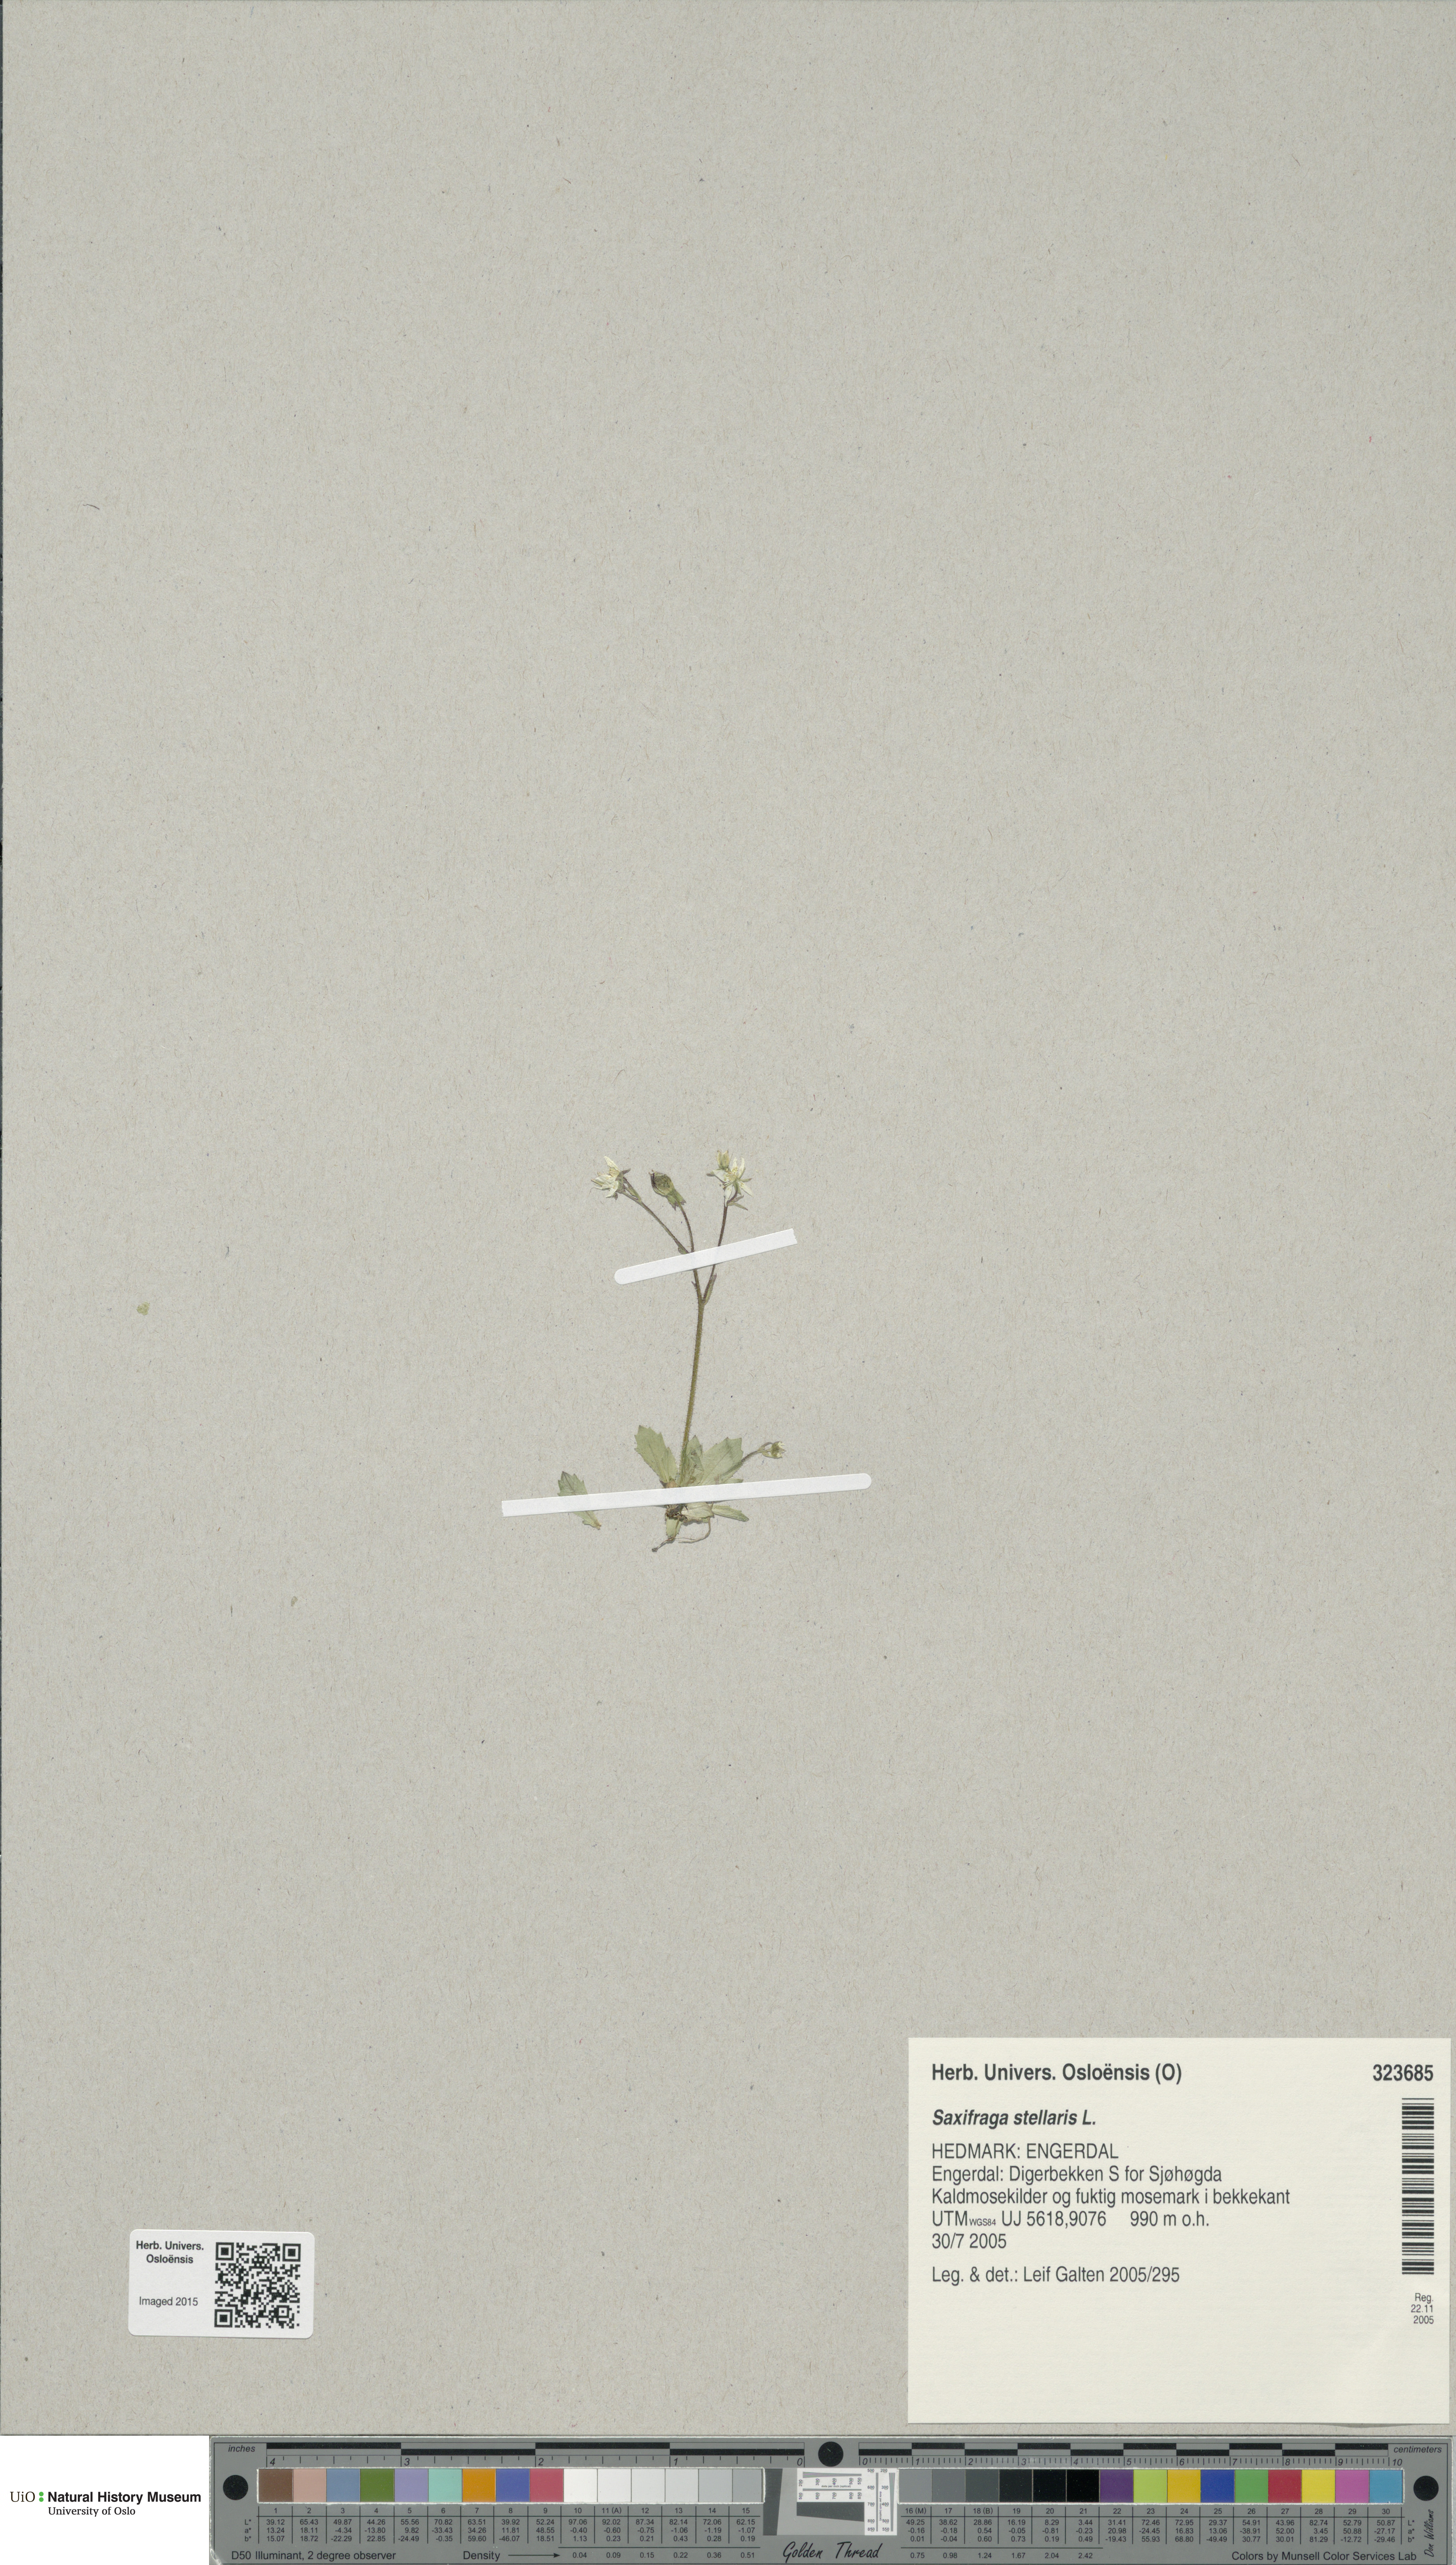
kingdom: Plantae
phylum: Tracheophyta
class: Magnoliopsida
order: Saxifragales
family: Saxifragaceae
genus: Micranthes
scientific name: Micranthes stellaris
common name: Starry saxifrage
